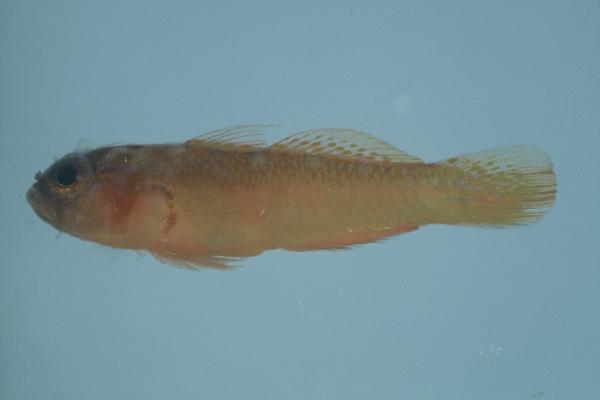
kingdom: Animalia
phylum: Chordata
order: Perciformes
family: Gobiidae
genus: Trimma
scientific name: Trimma omanense
